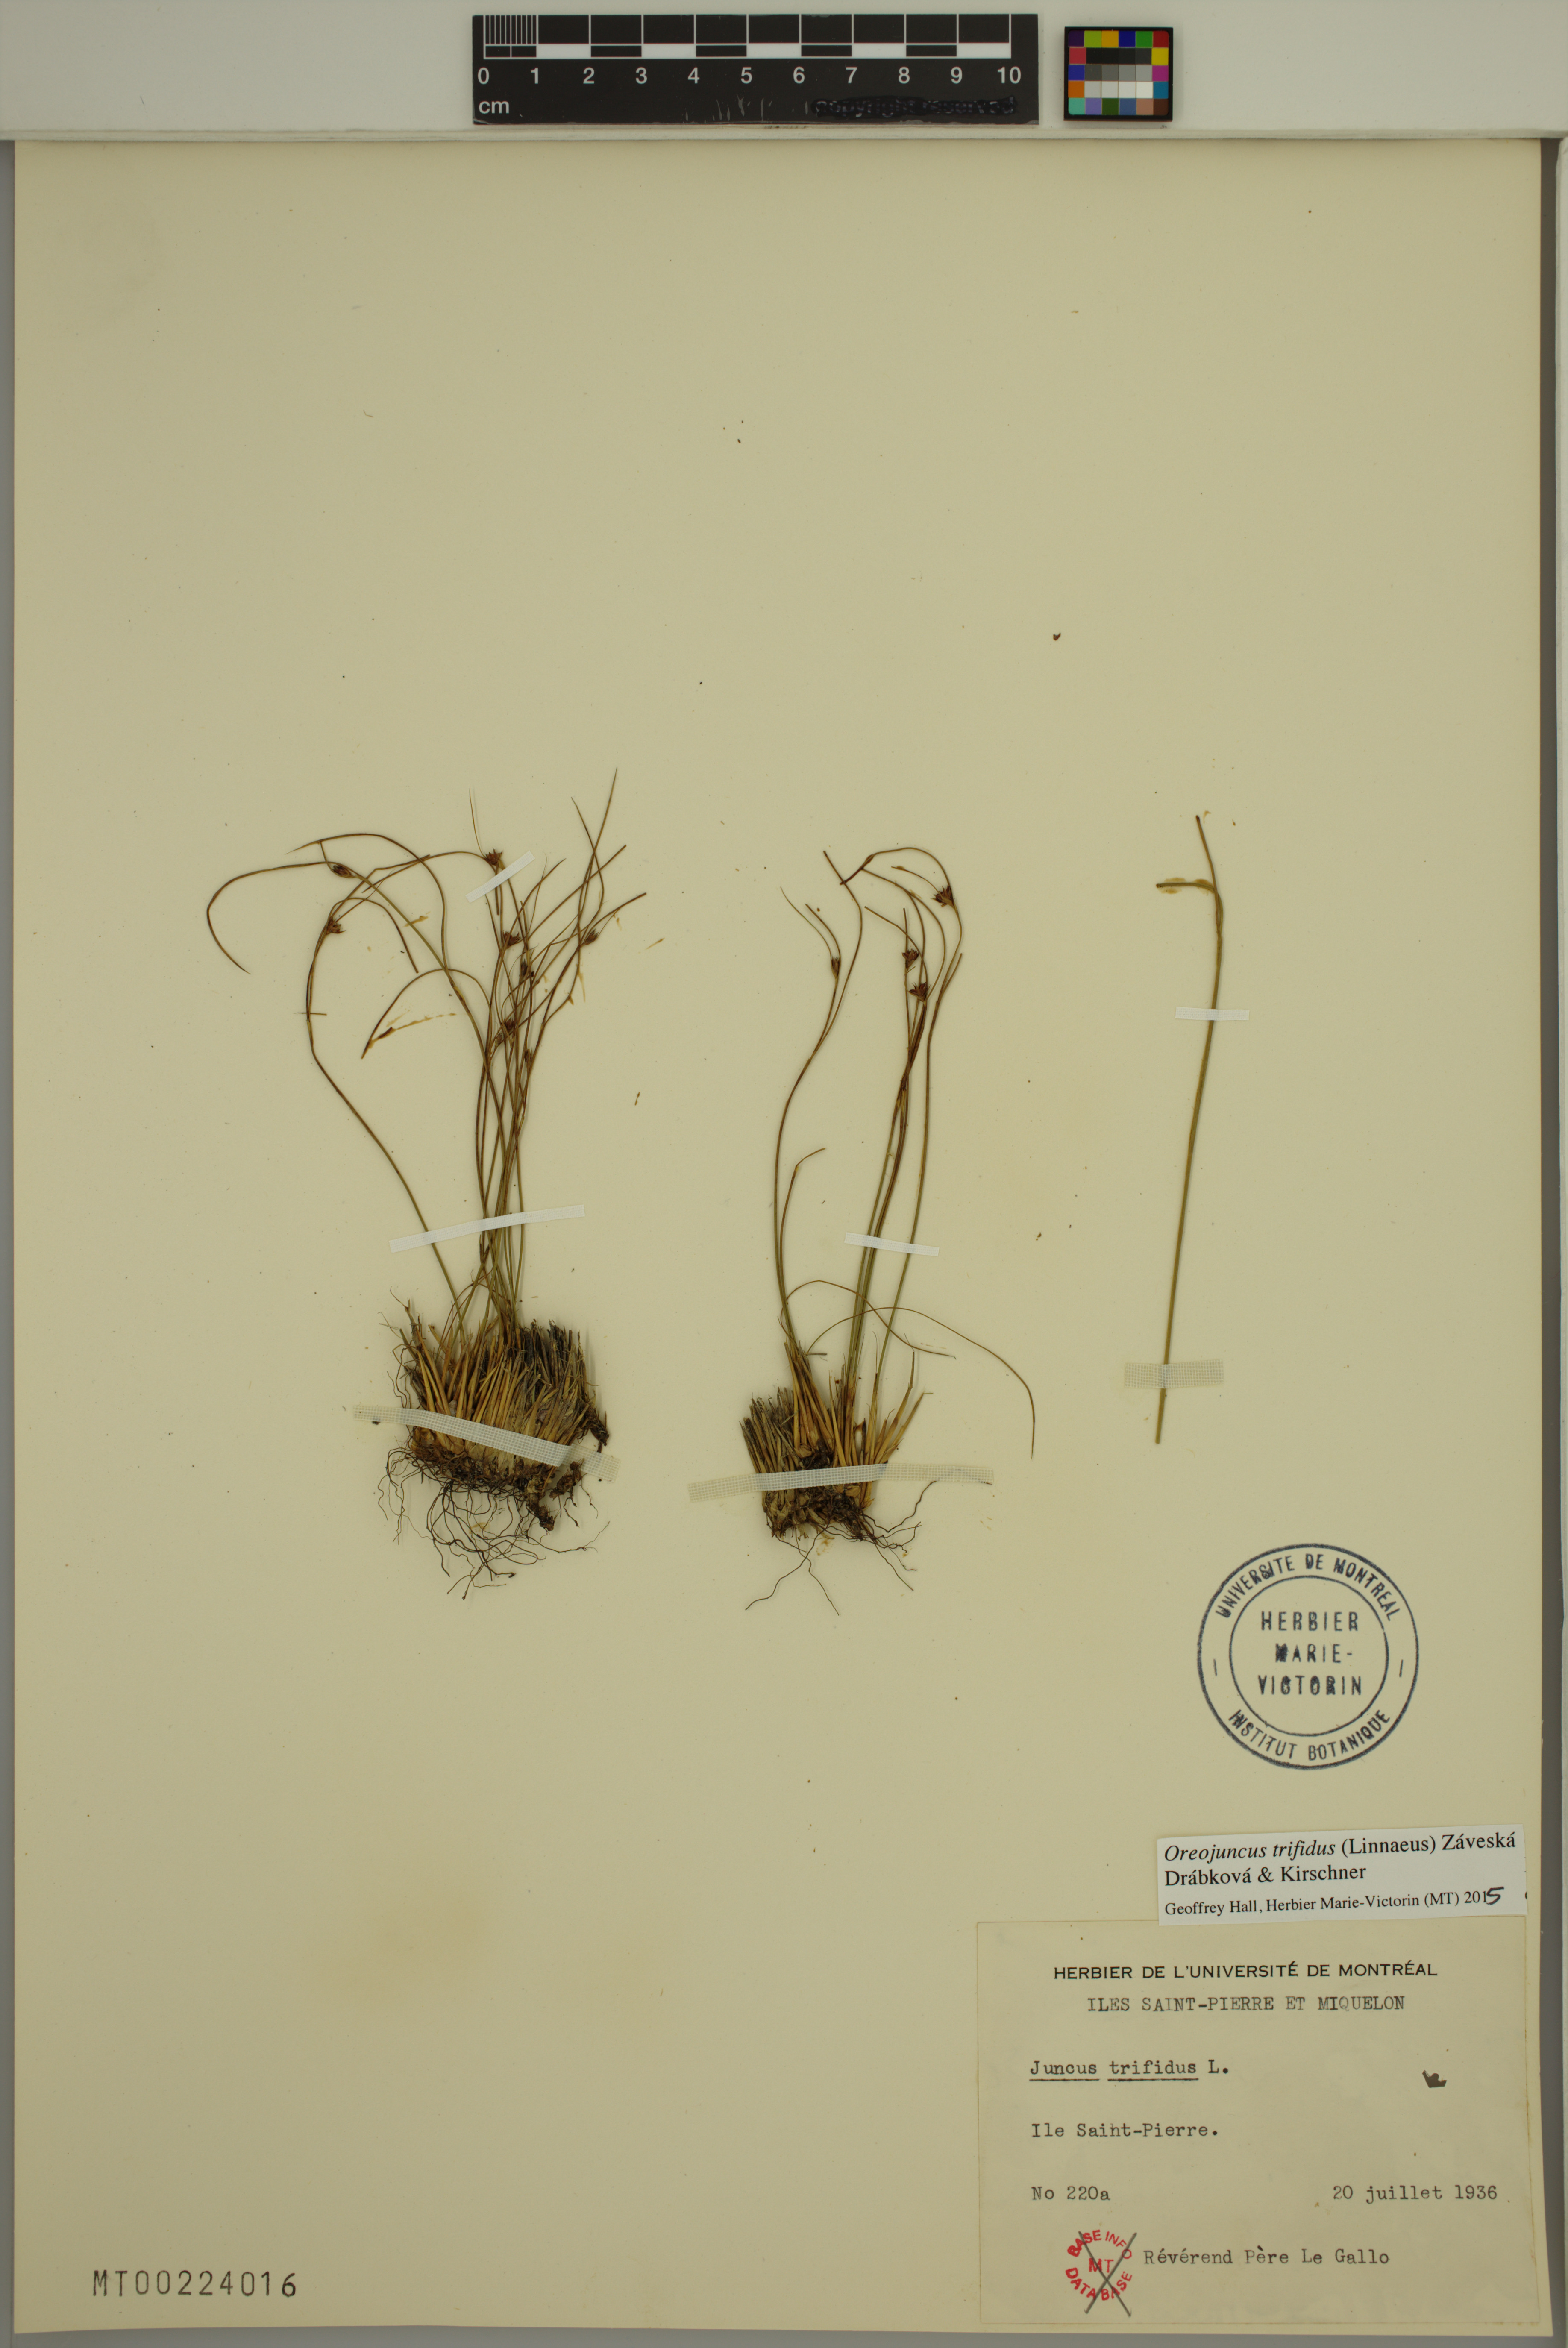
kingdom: Plantae
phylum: Tracheophyta
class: Liliopsida
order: Poales
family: Juncaceae
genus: Oreojuncus
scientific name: Oreojuncus trifidus
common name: Highland rush
